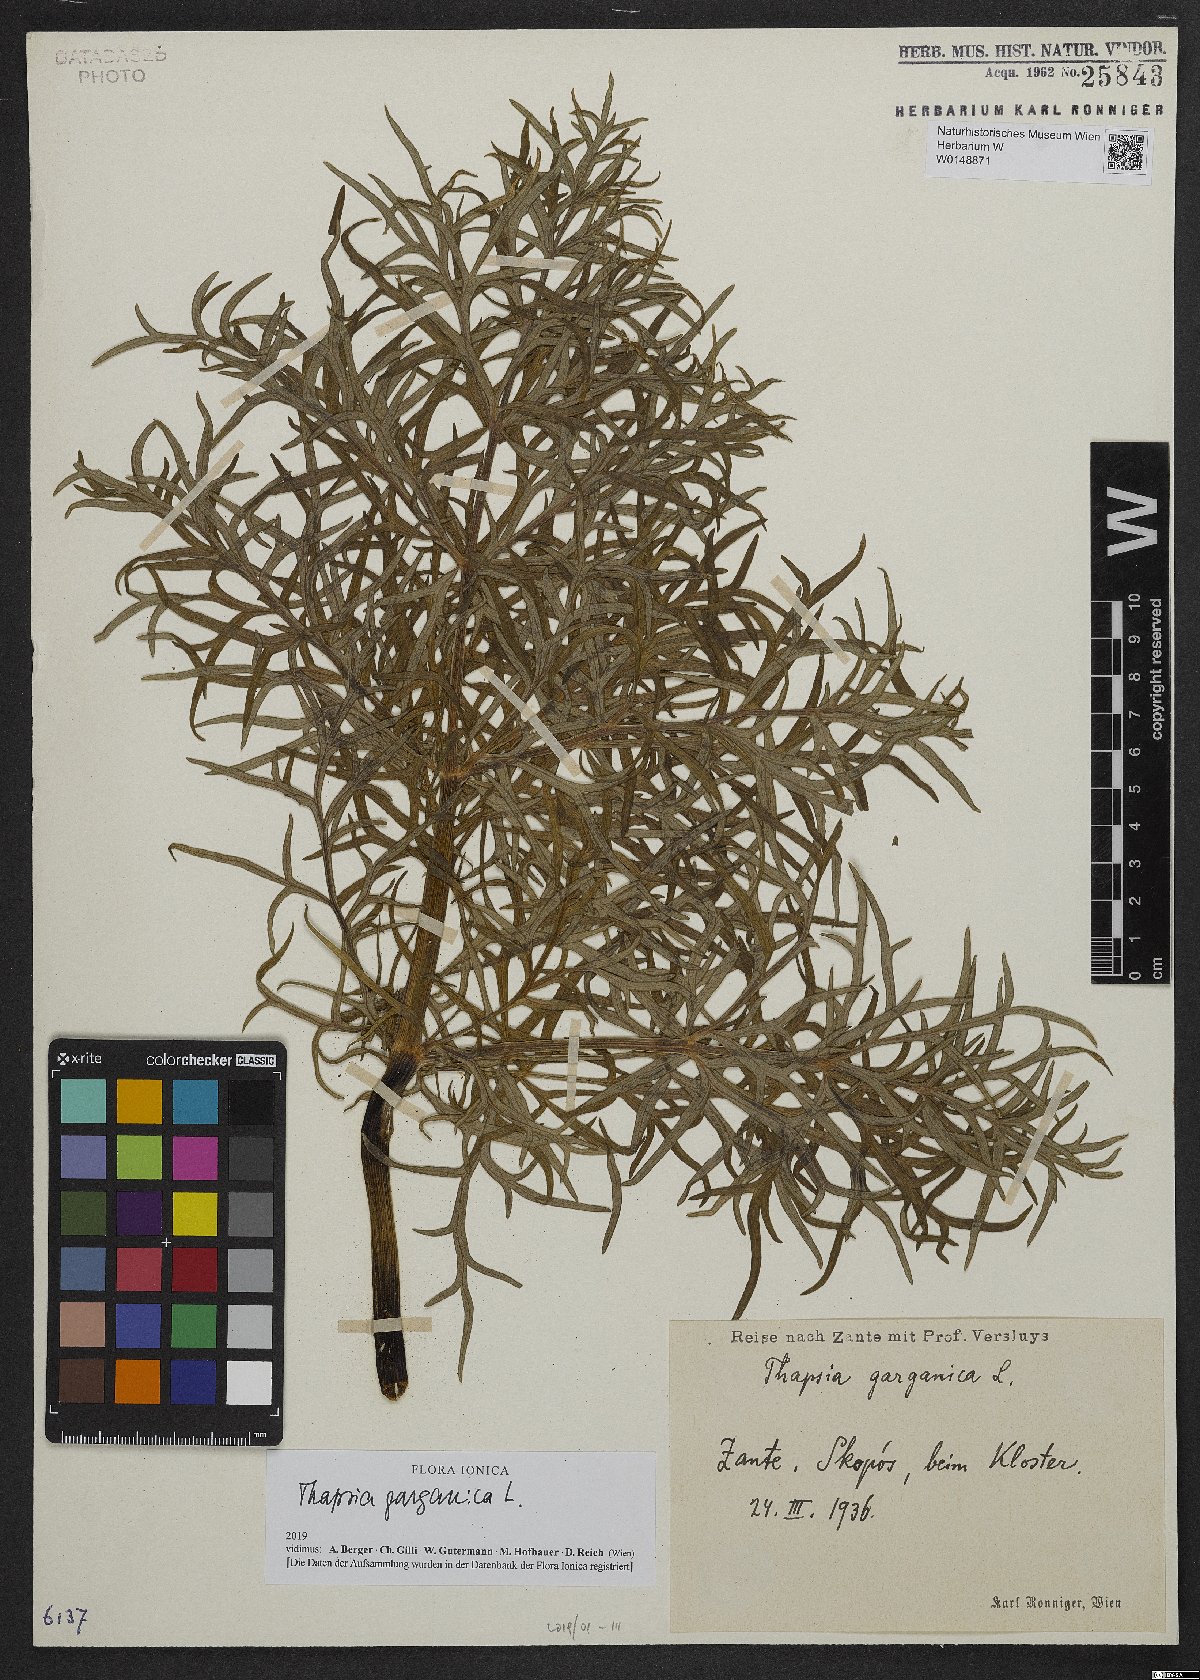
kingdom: Plantae
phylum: Tracheophyta
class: Magnoliopsida
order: Apiales
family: Apiaceae
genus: Thapsia
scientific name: Thapsia garganica
